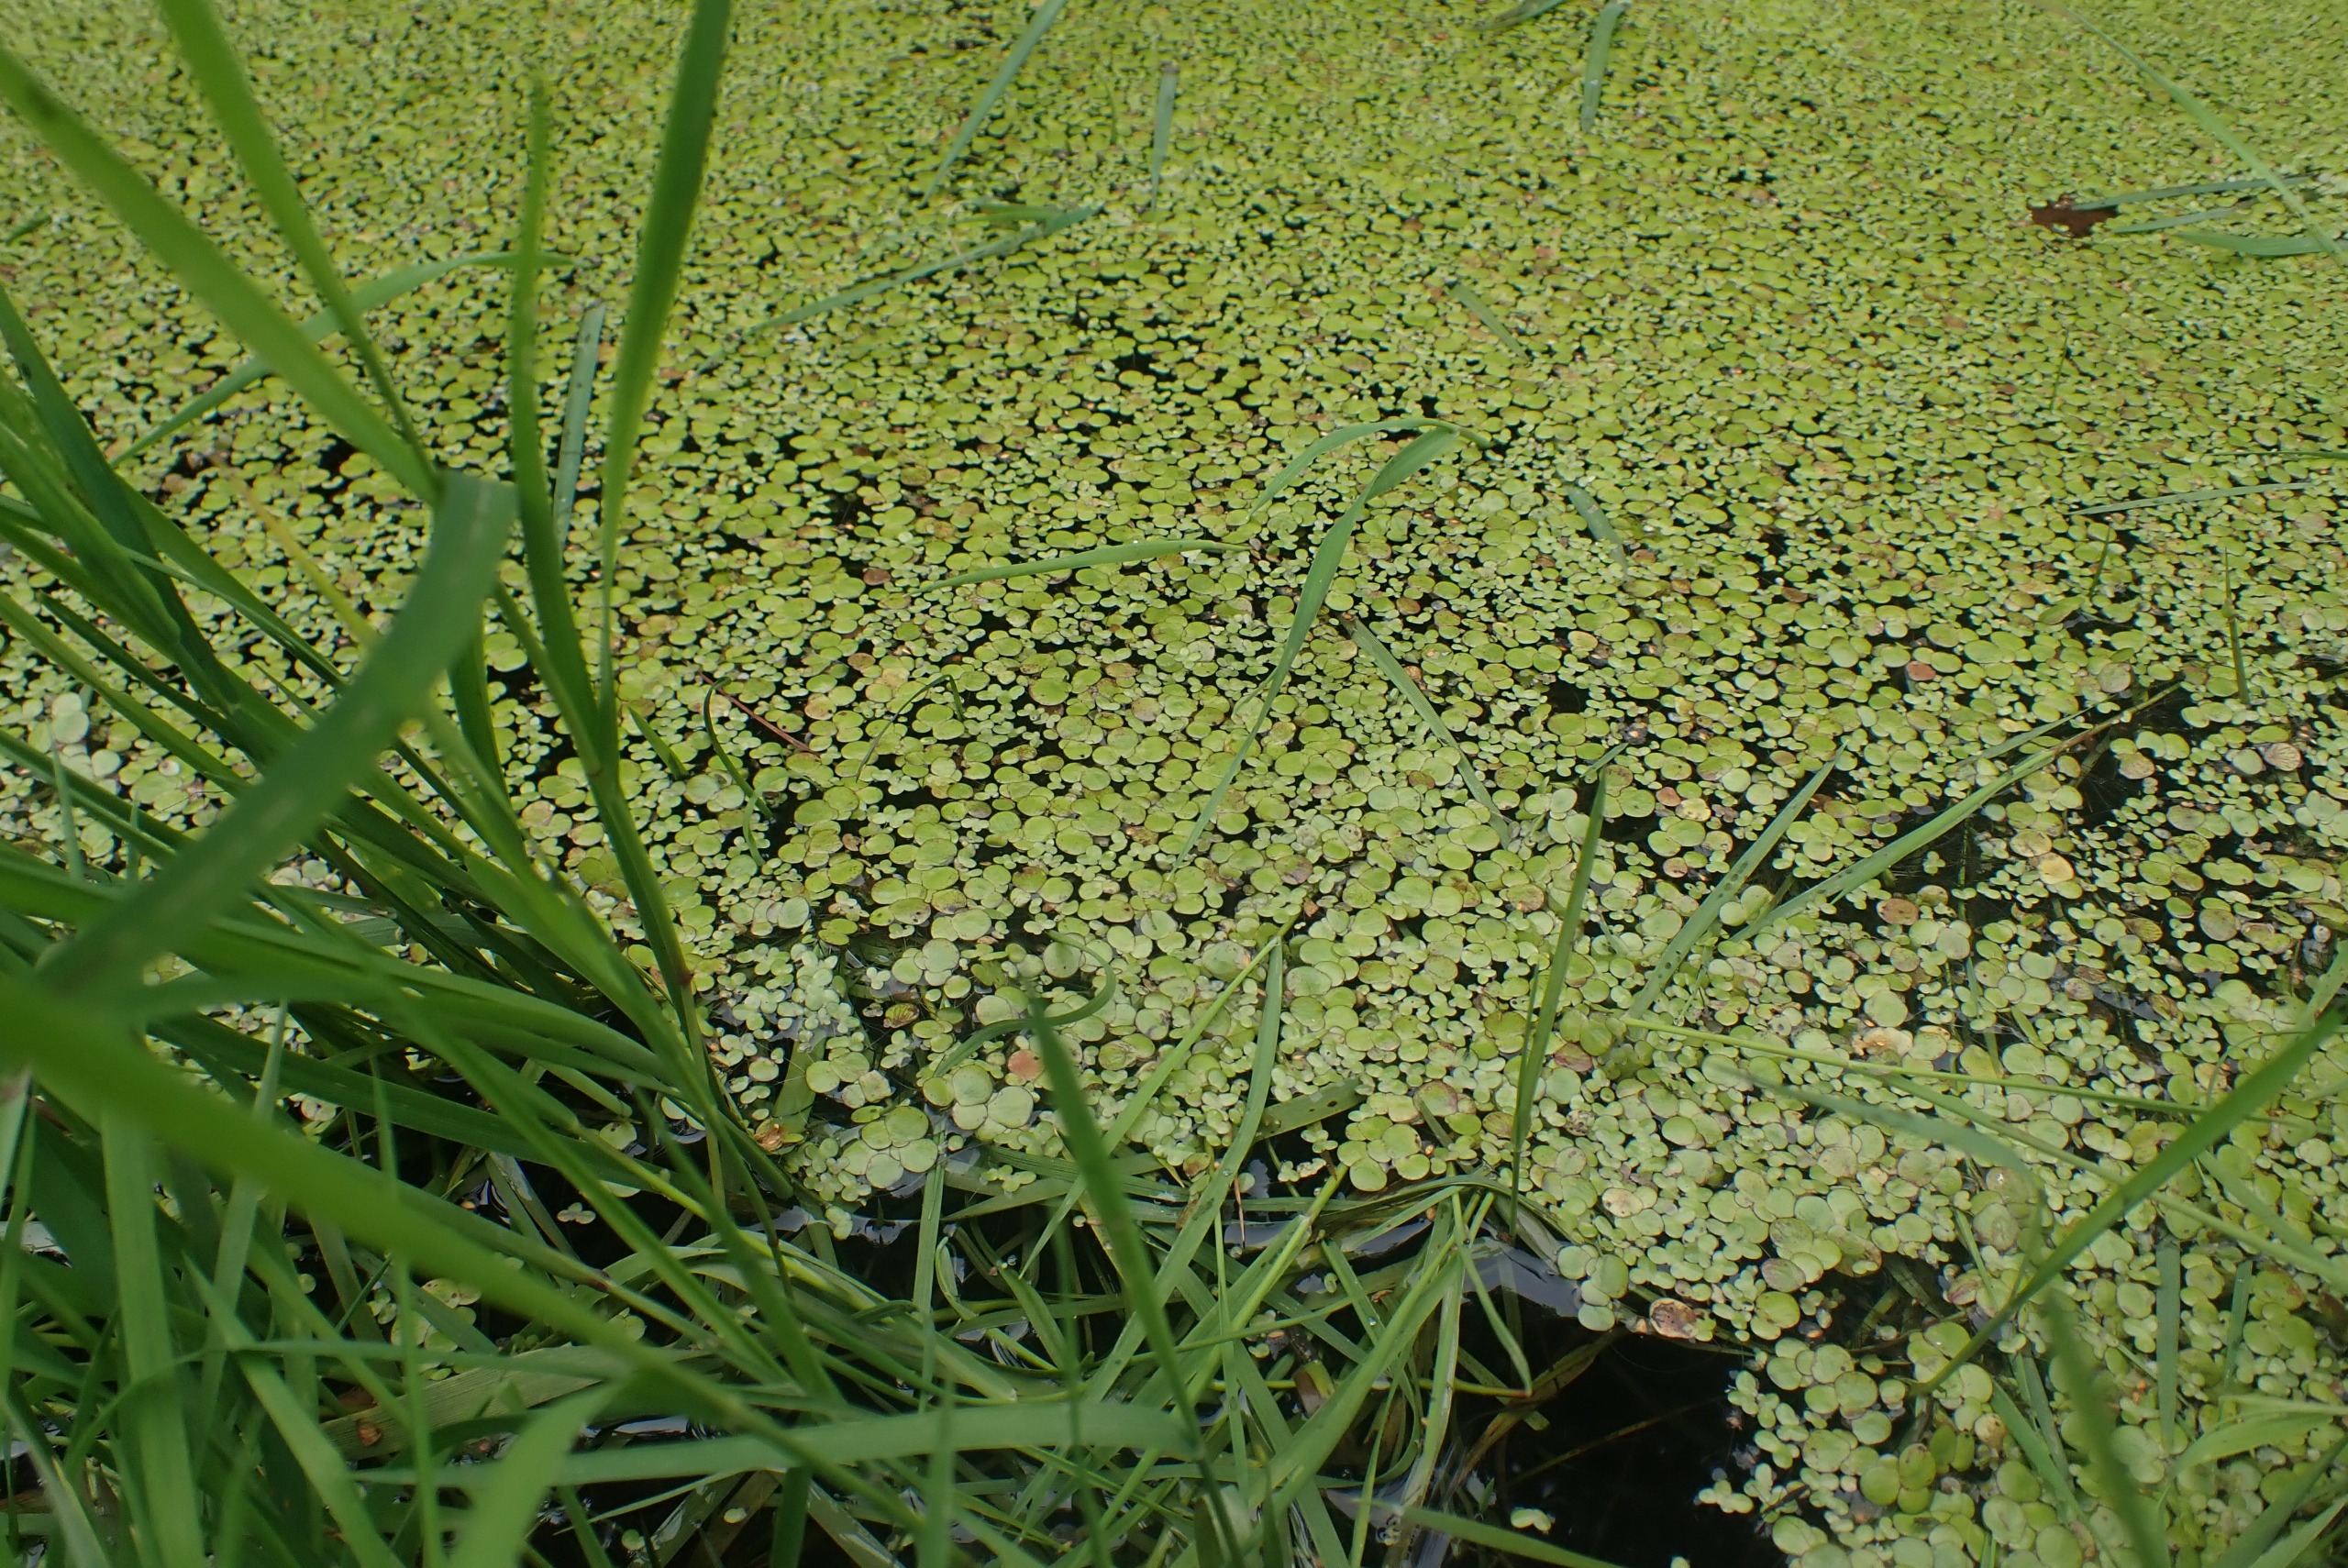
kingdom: Plantae
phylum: Tracheophyta
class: Liliopsida
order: Alismatales
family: Araceae
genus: Spirodela
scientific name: Spirodela polyrhiza
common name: Stor andemad
